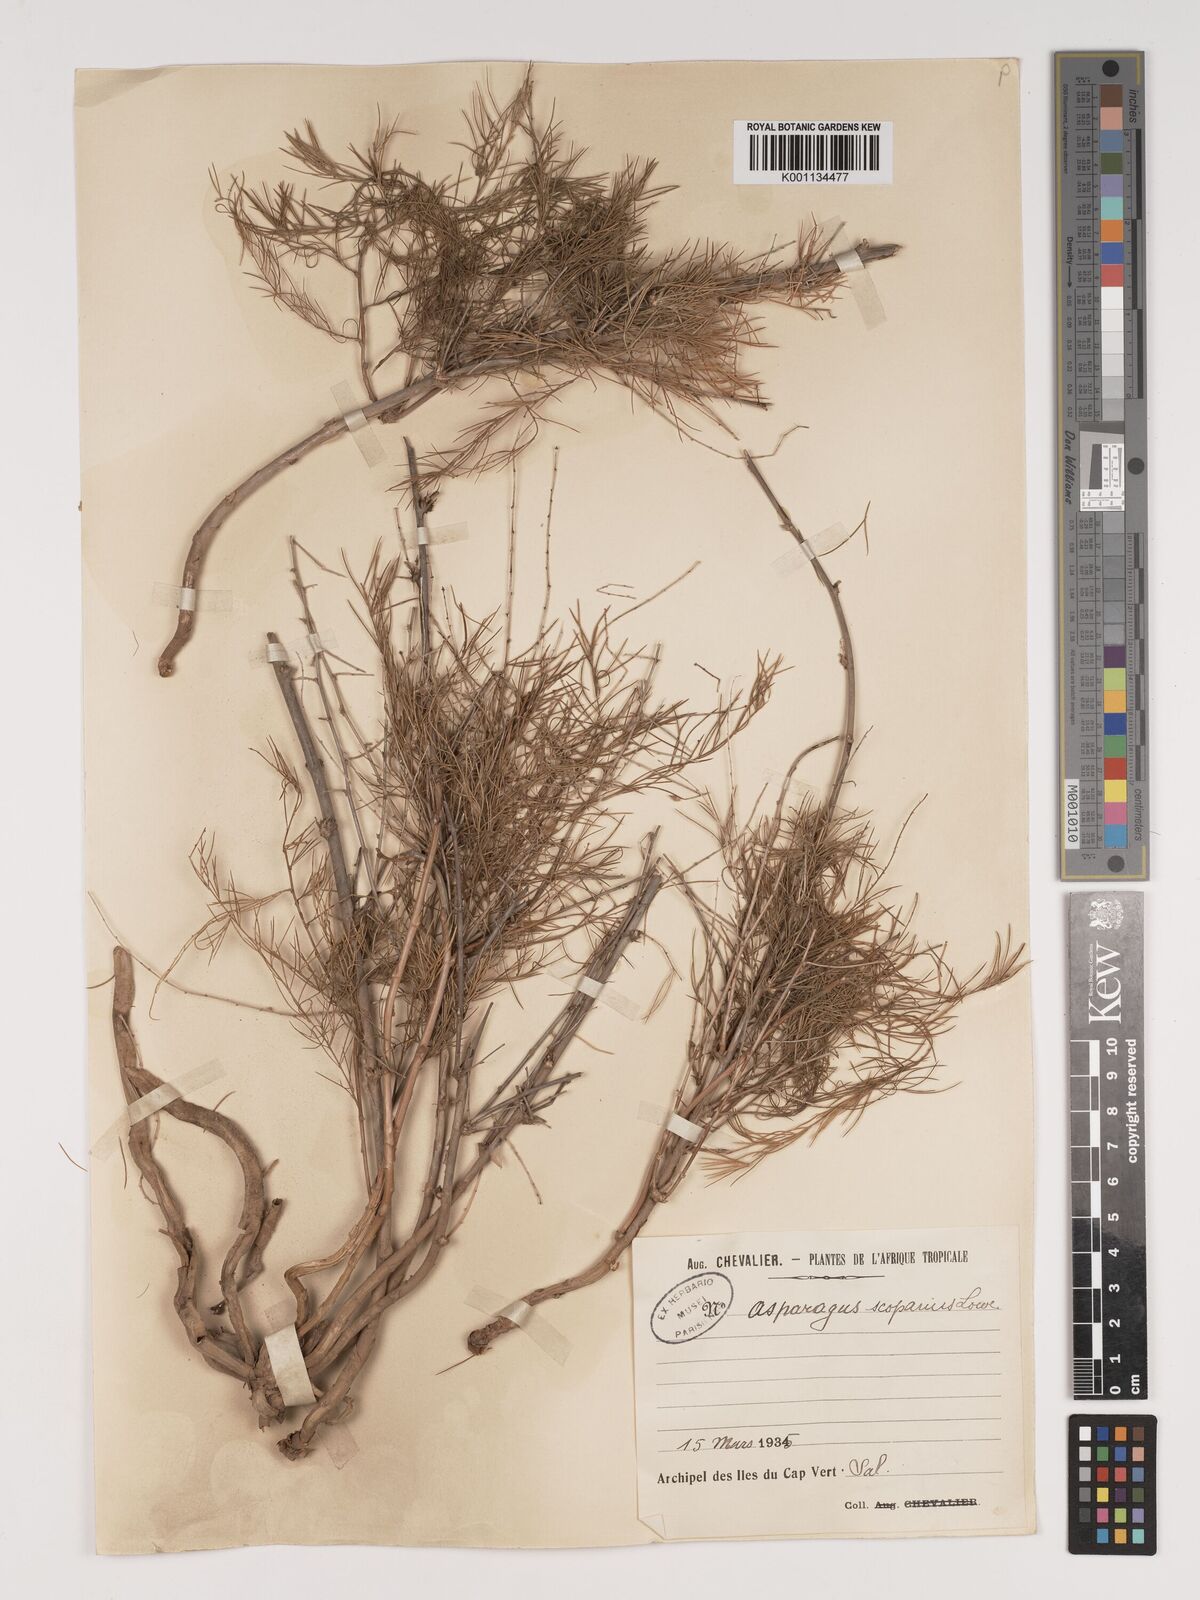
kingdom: Plantae
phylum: Tracheophyta
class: Liliopsida
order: Asparagales
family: Asparagaceae
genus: Asparagus
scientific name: Asparagus scoparius
